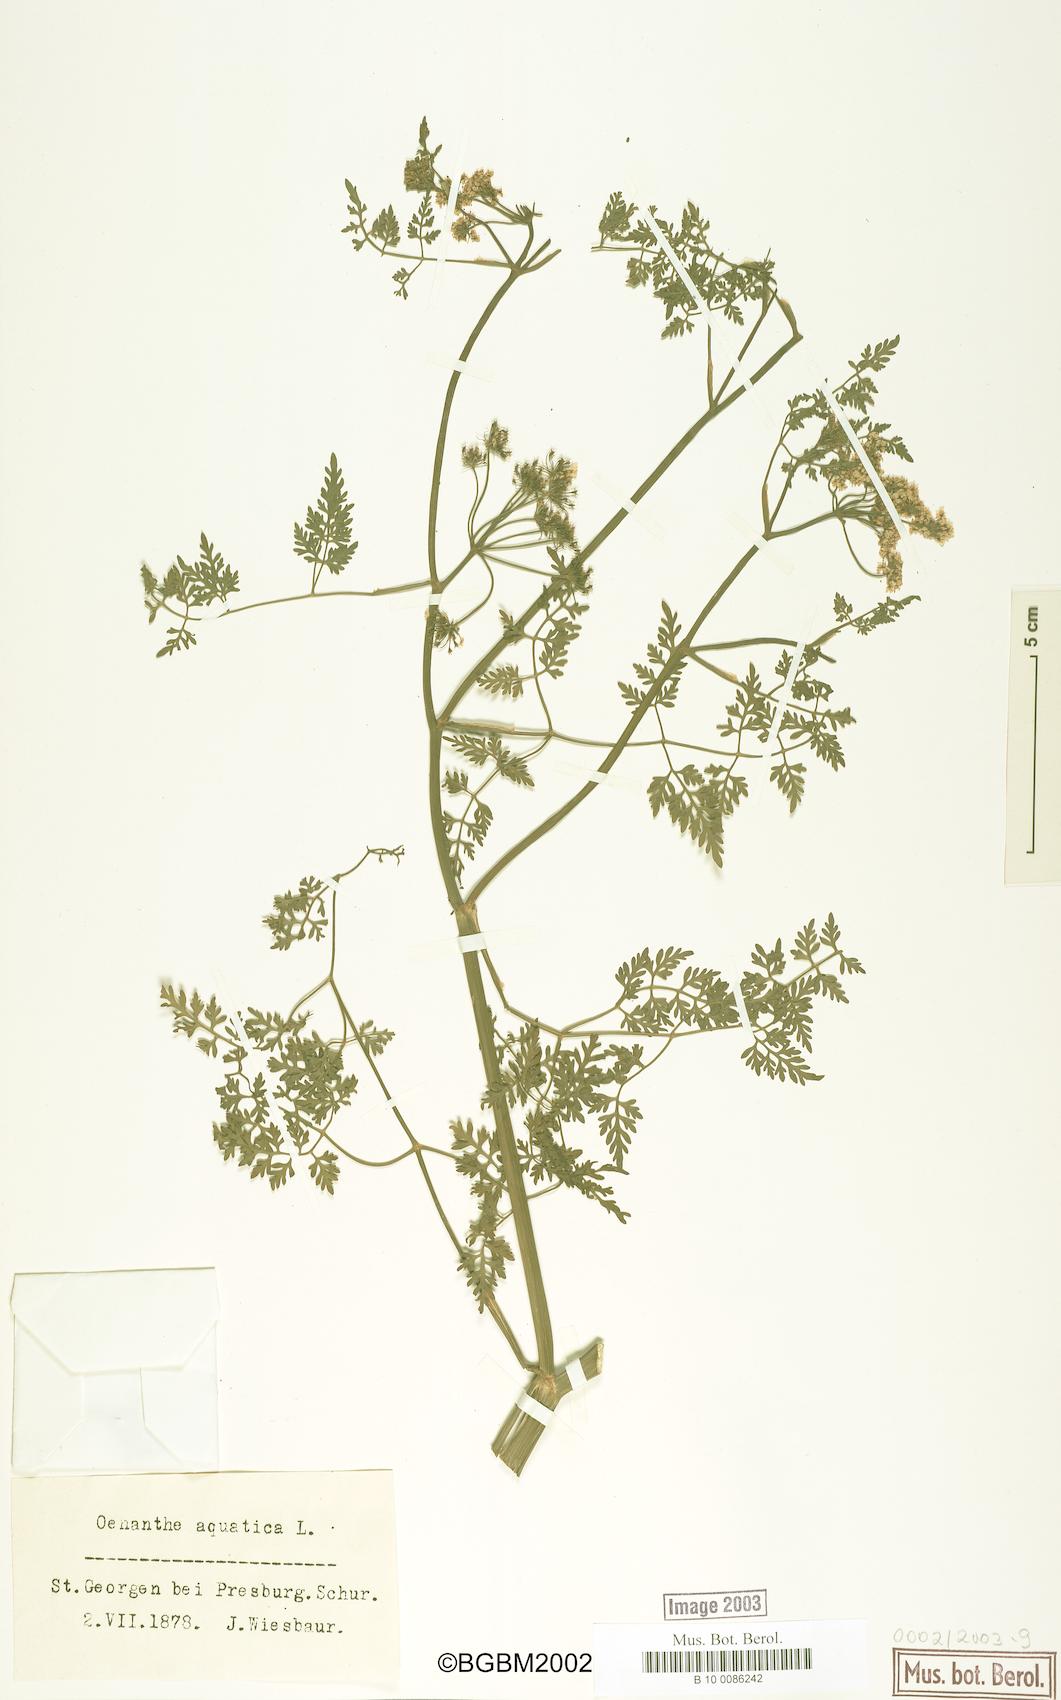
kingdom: Plantae
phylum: Tracheophyta
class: Magnoliopsida
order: Apiales
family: Apiaceae
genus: Oenanthe
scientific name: Oenanthe aquatica
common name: Fine-leaved water-dropwort
